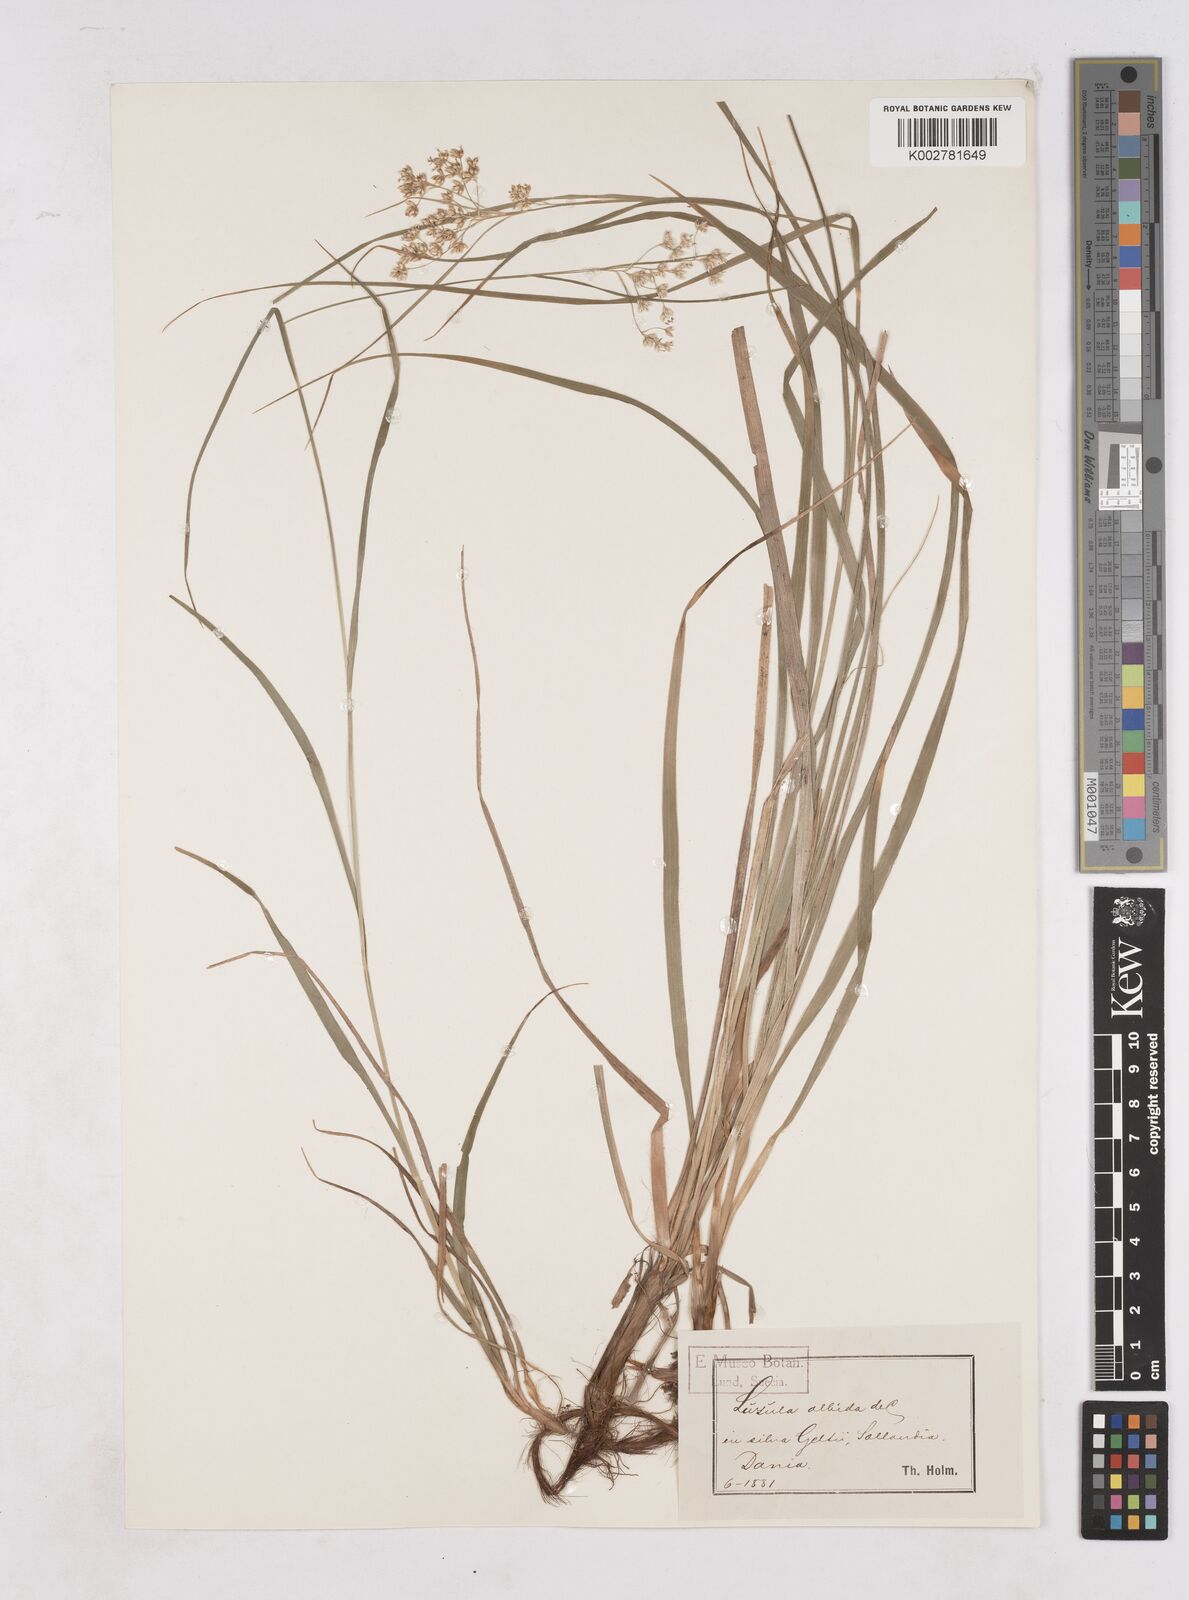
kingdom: Plantae
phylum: Tracheophyta
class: Liliopsida
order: Poales
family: Juncaceae
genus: Luzula
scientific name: Luzula luzuloides
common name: White wood-rush
